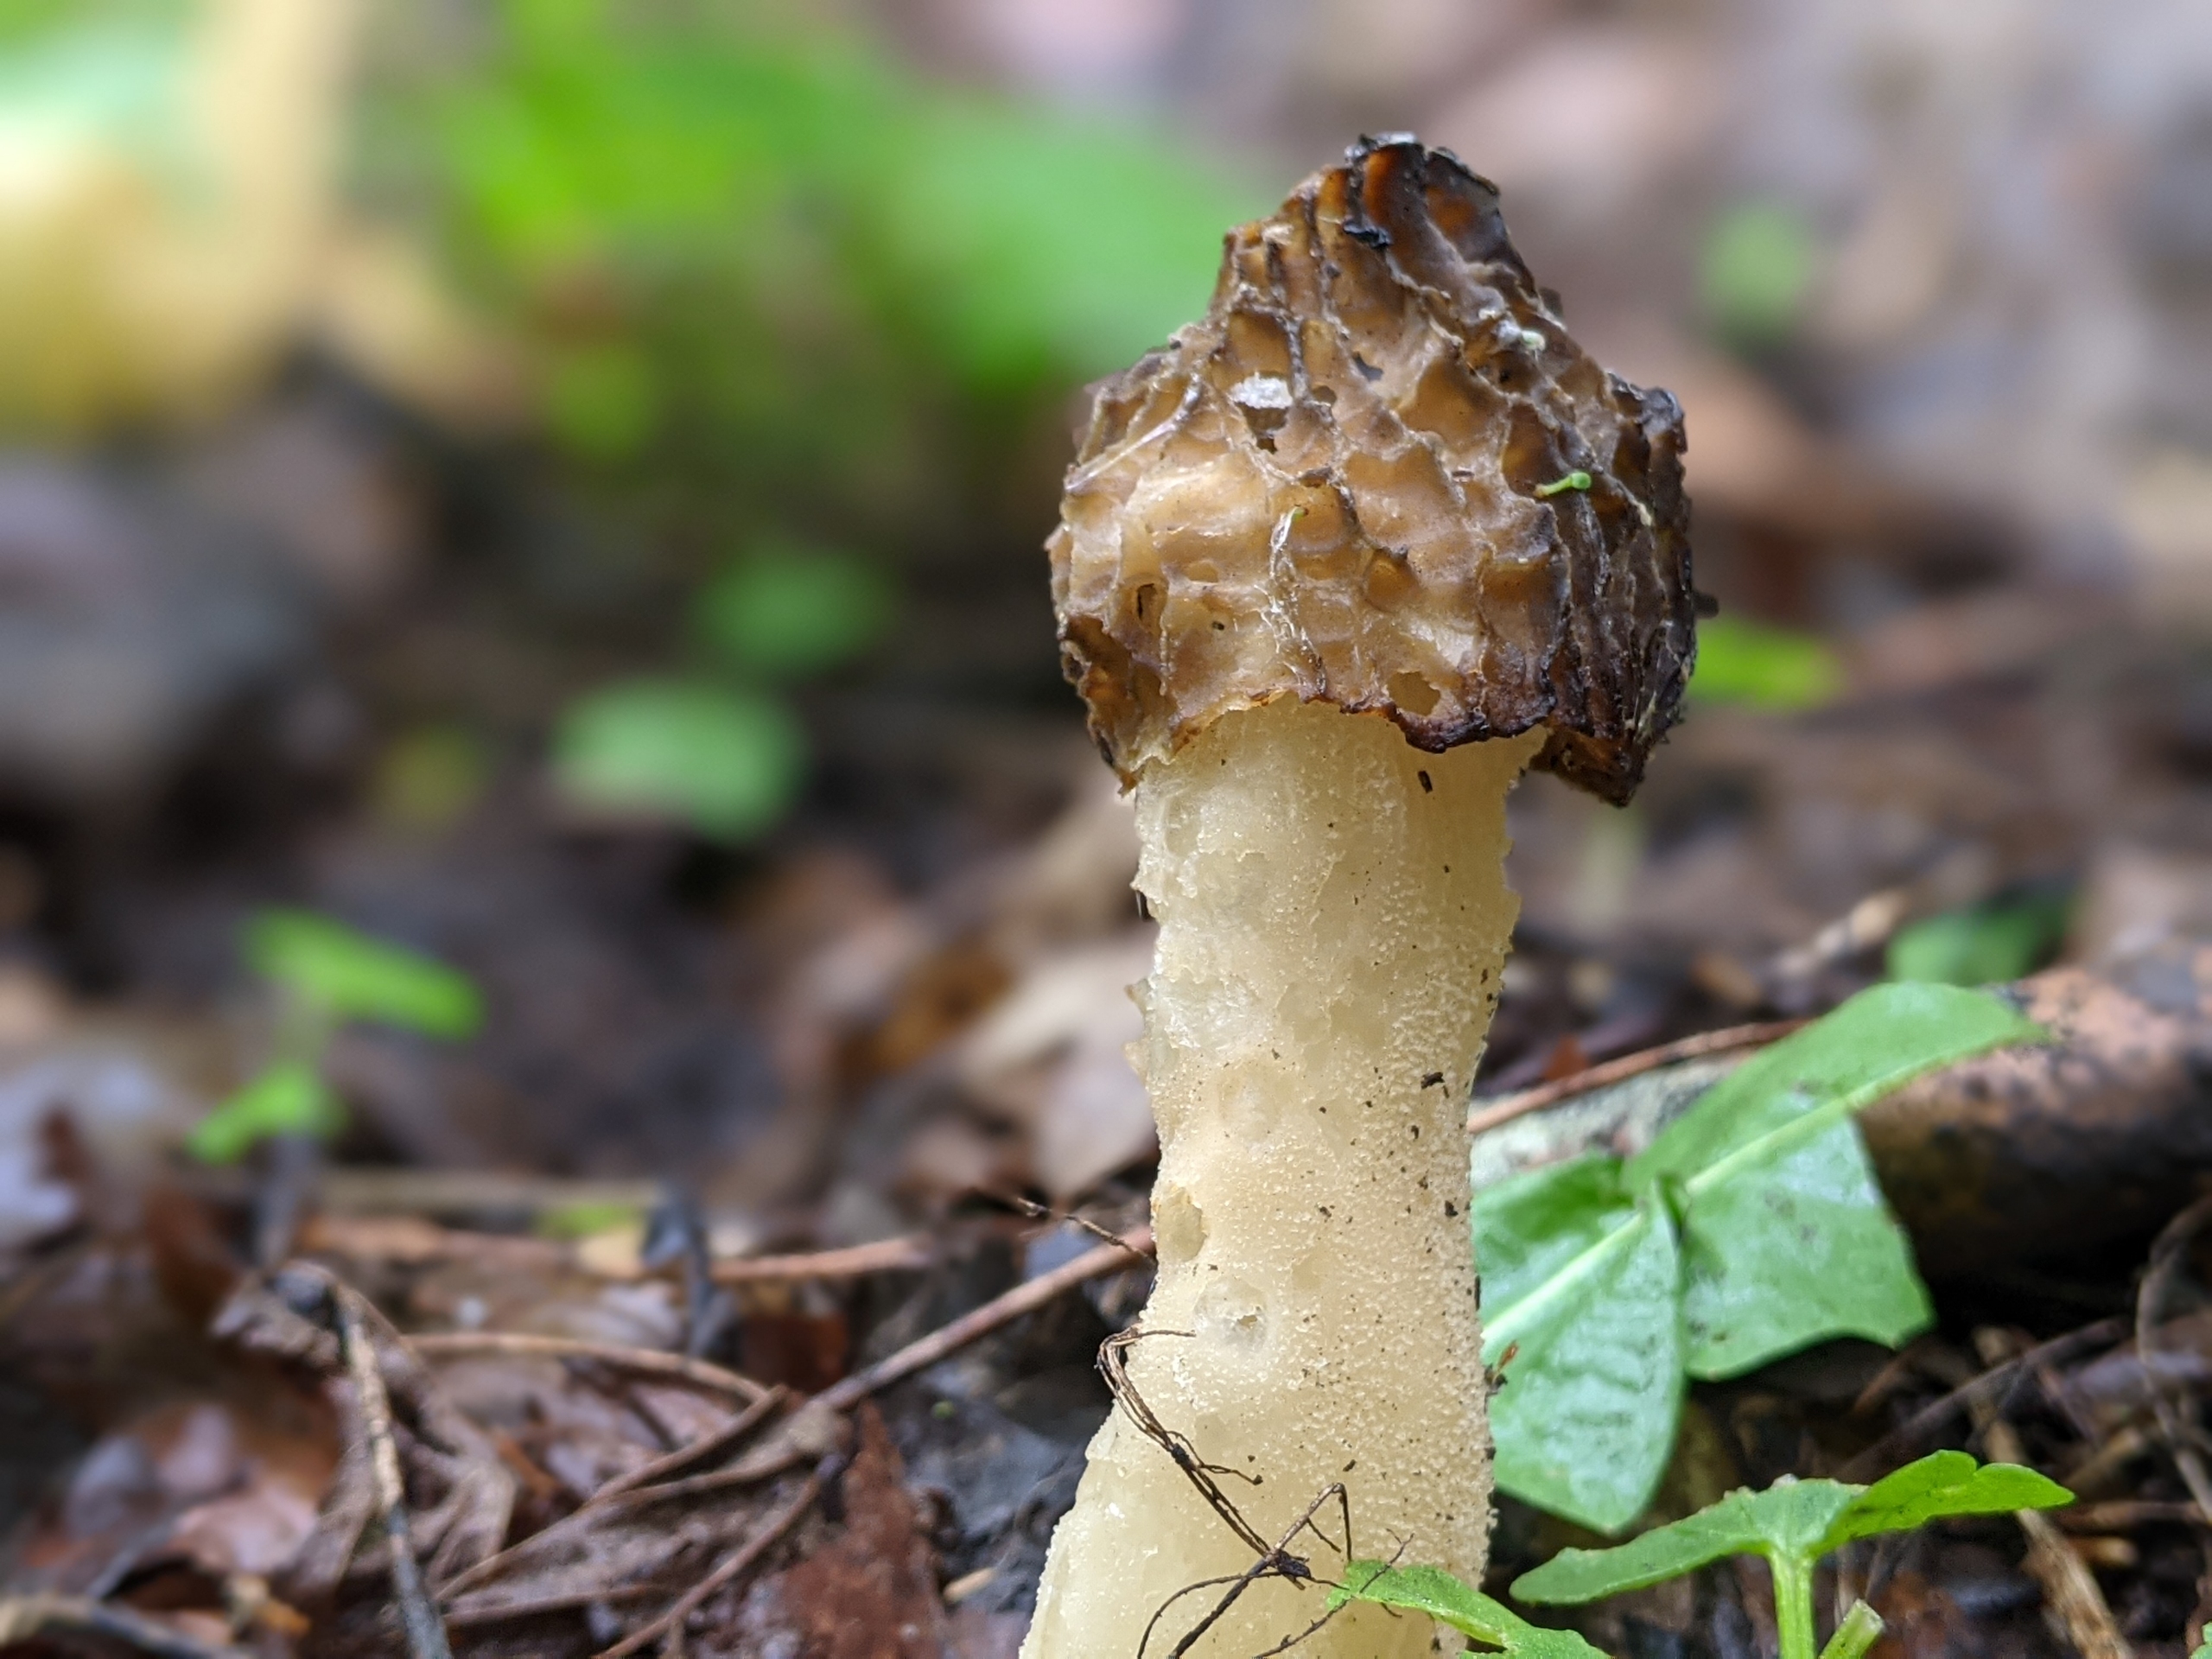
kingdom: Fungi
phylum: Ascomycota
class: Pezizomycetes
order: Pezizales
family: Morchellaceae
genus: Morchella
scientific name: Morchella semilibera
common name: Hætte-morkel
